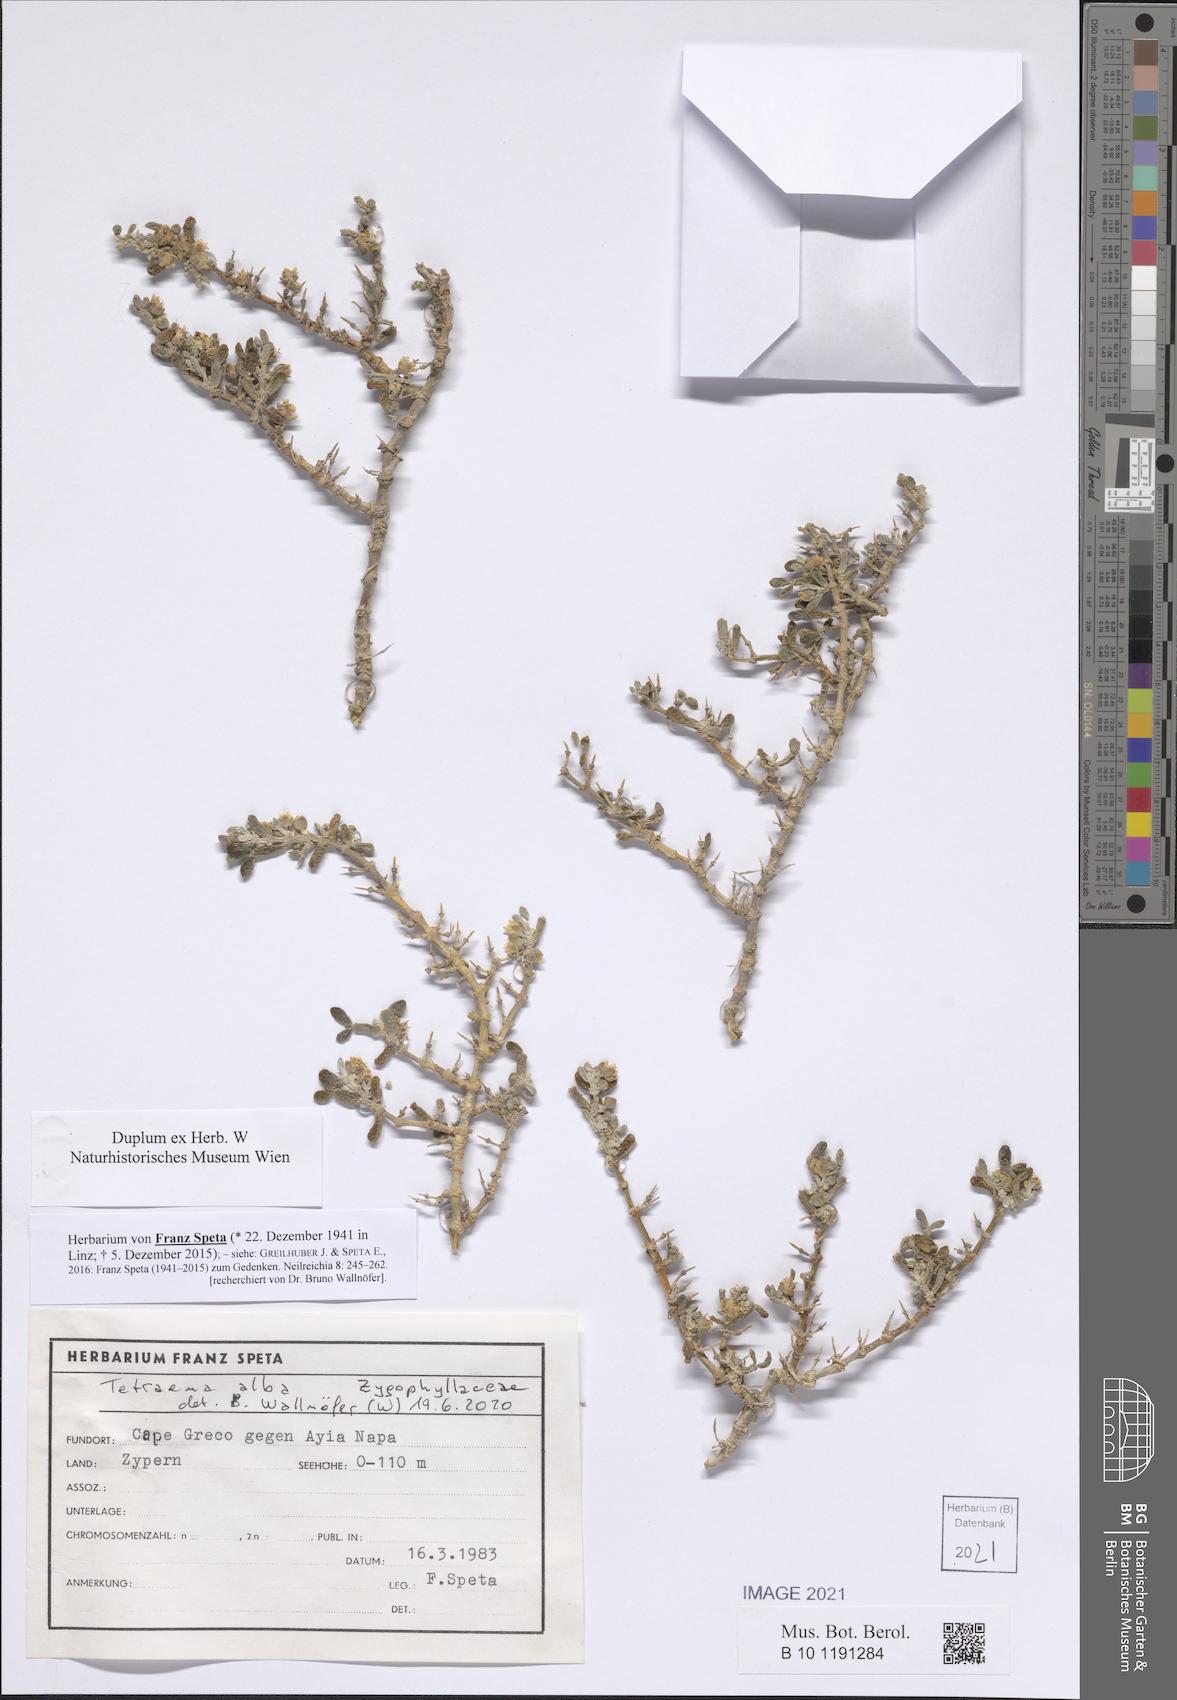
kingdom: Plantae
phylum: Tracheophyta
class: Magnoliopsida
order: Zygophyllales
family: Zygophyllaceae
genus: Tetraena
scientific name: Tetraena alba
